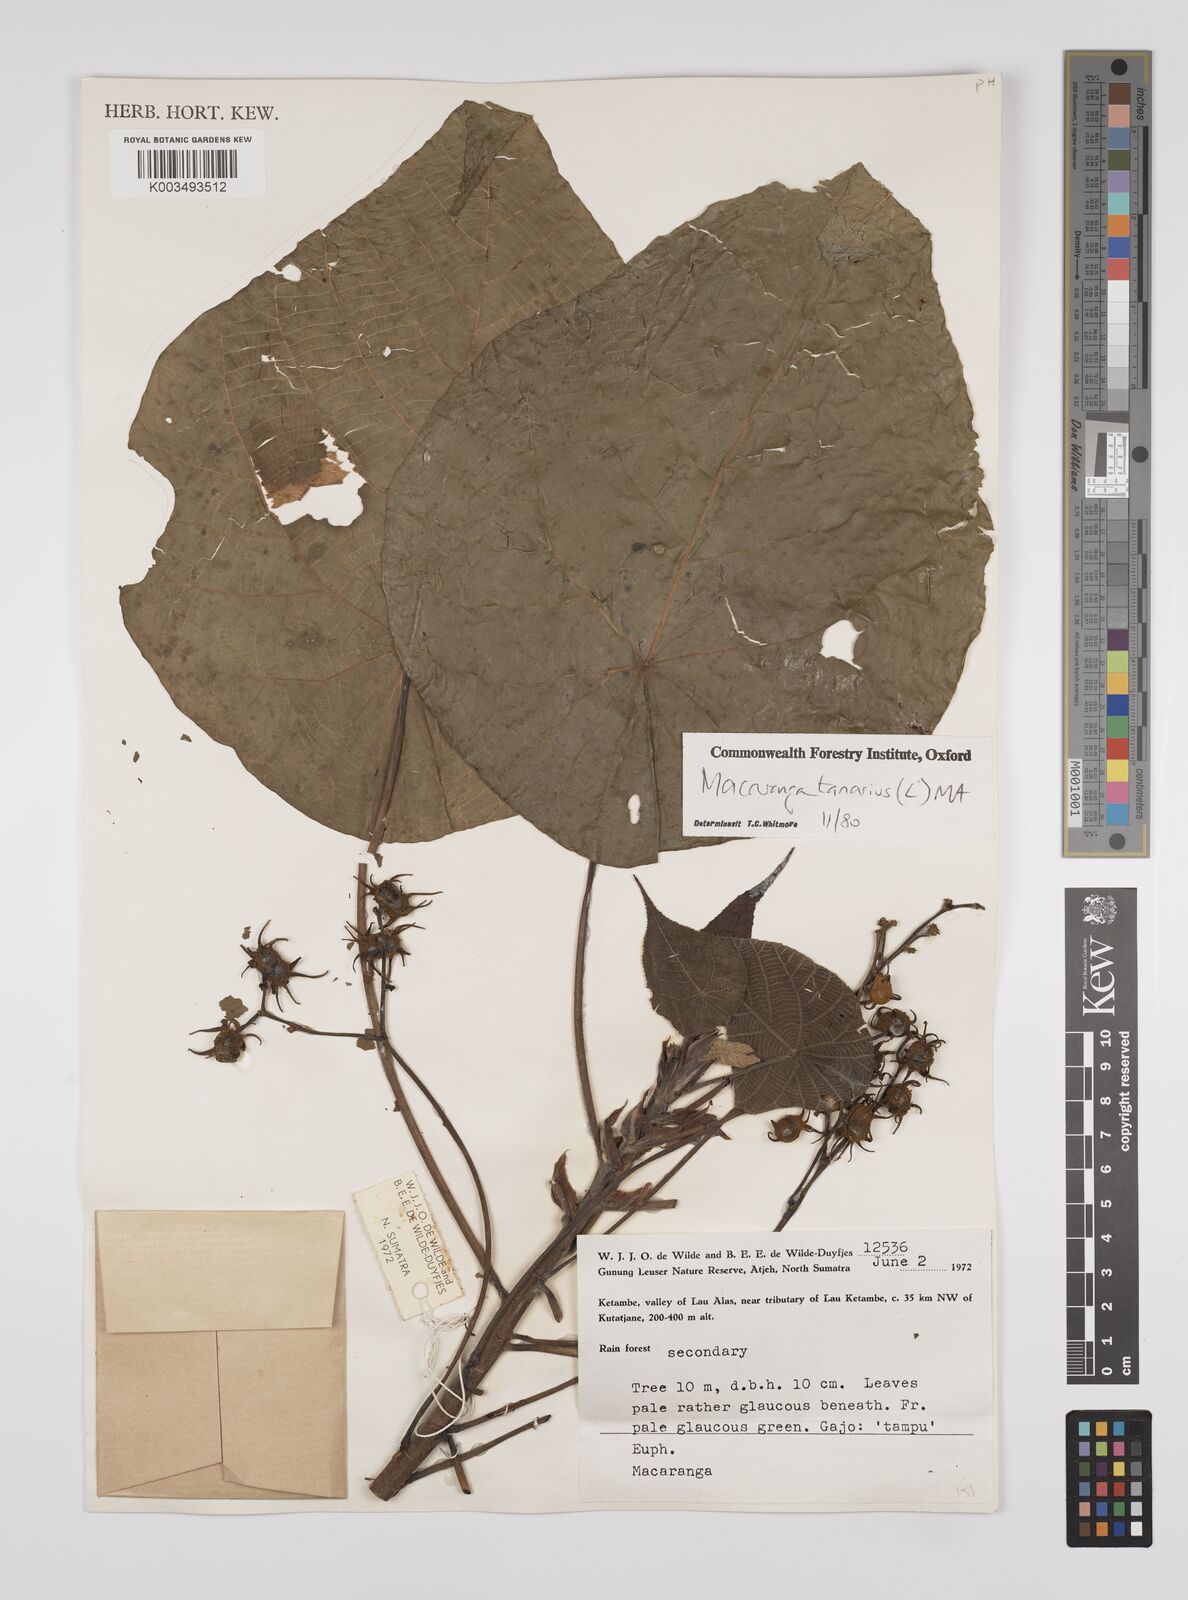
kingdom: Plantae
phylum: Tracheophyta
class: Magnoliopsida
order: Malpighiales
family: Euphorbiaceae
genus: Macaranga
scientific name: Macaranga tanarius
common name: Parasol leaf tree
